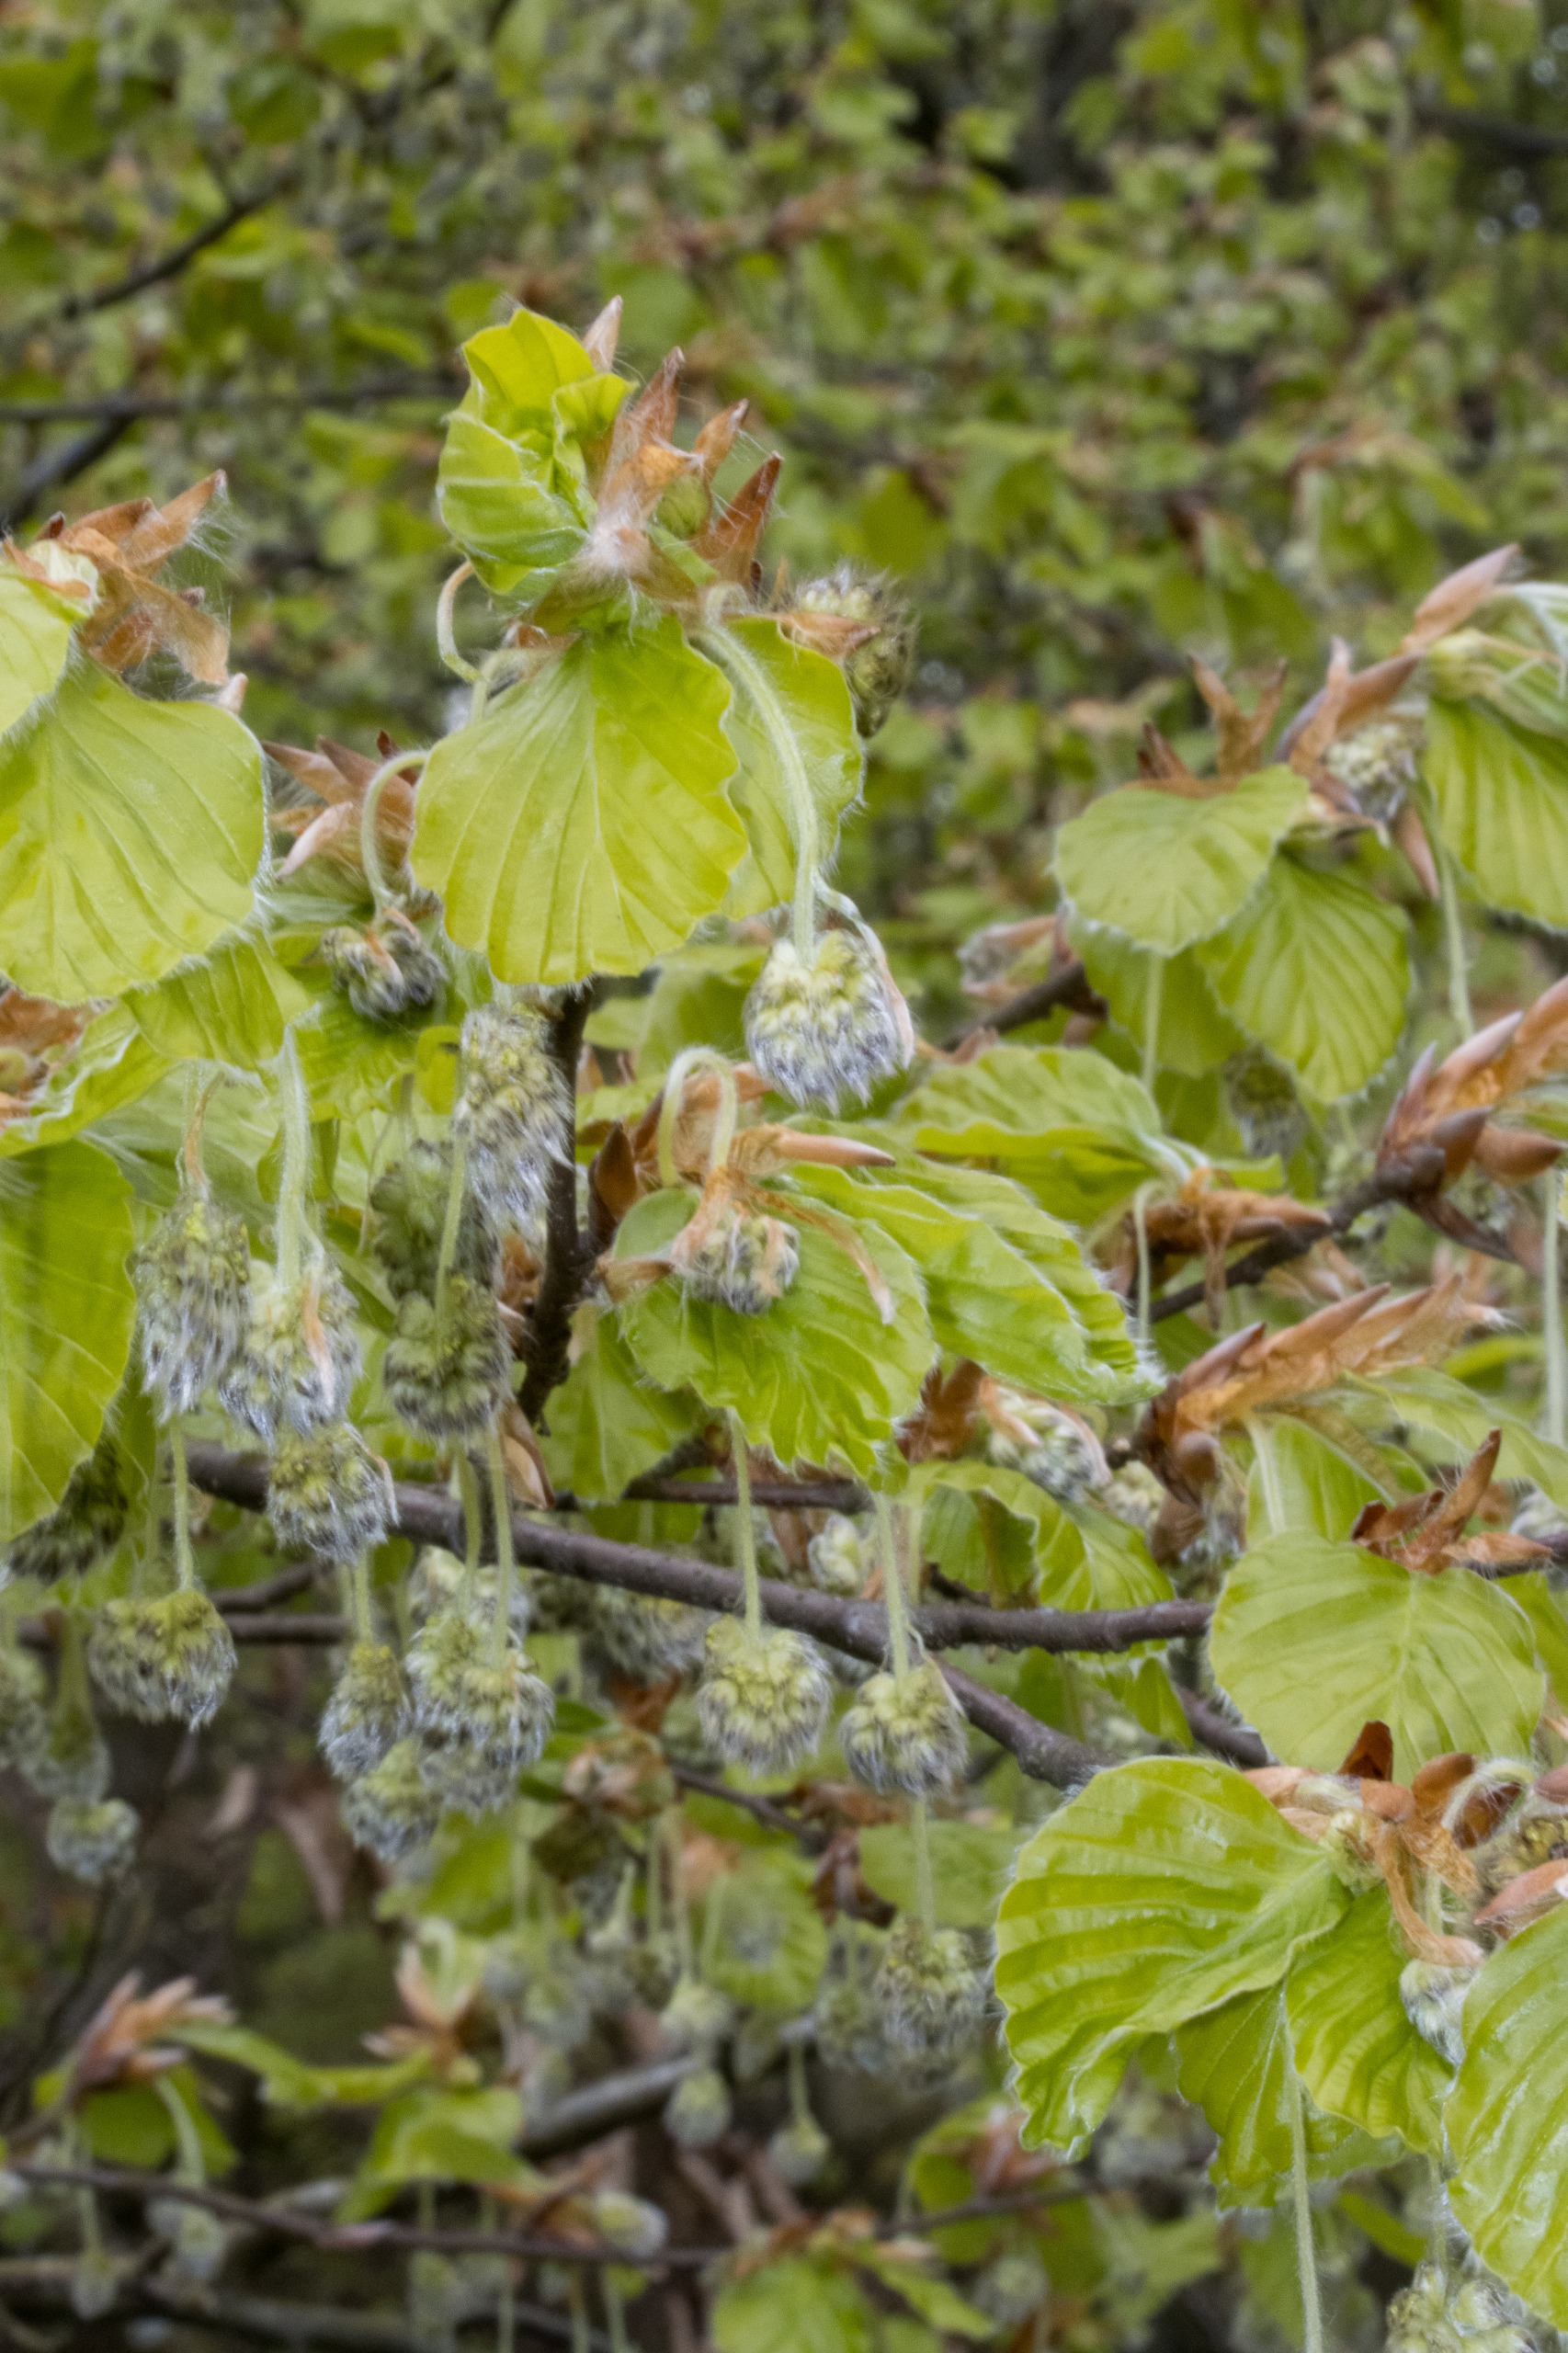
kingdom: Plantae
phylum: Tracheophyta
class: Magnoliopsida
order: Fagales
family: Fagaceae
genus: Fagus
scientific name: Fagus sylvatica
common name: Bøg
